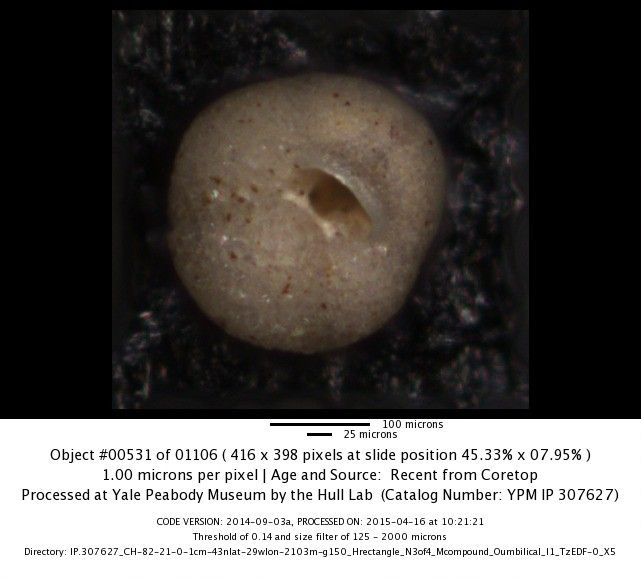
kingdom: Chromista
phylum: Foraminifera
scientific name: Foraminifera
